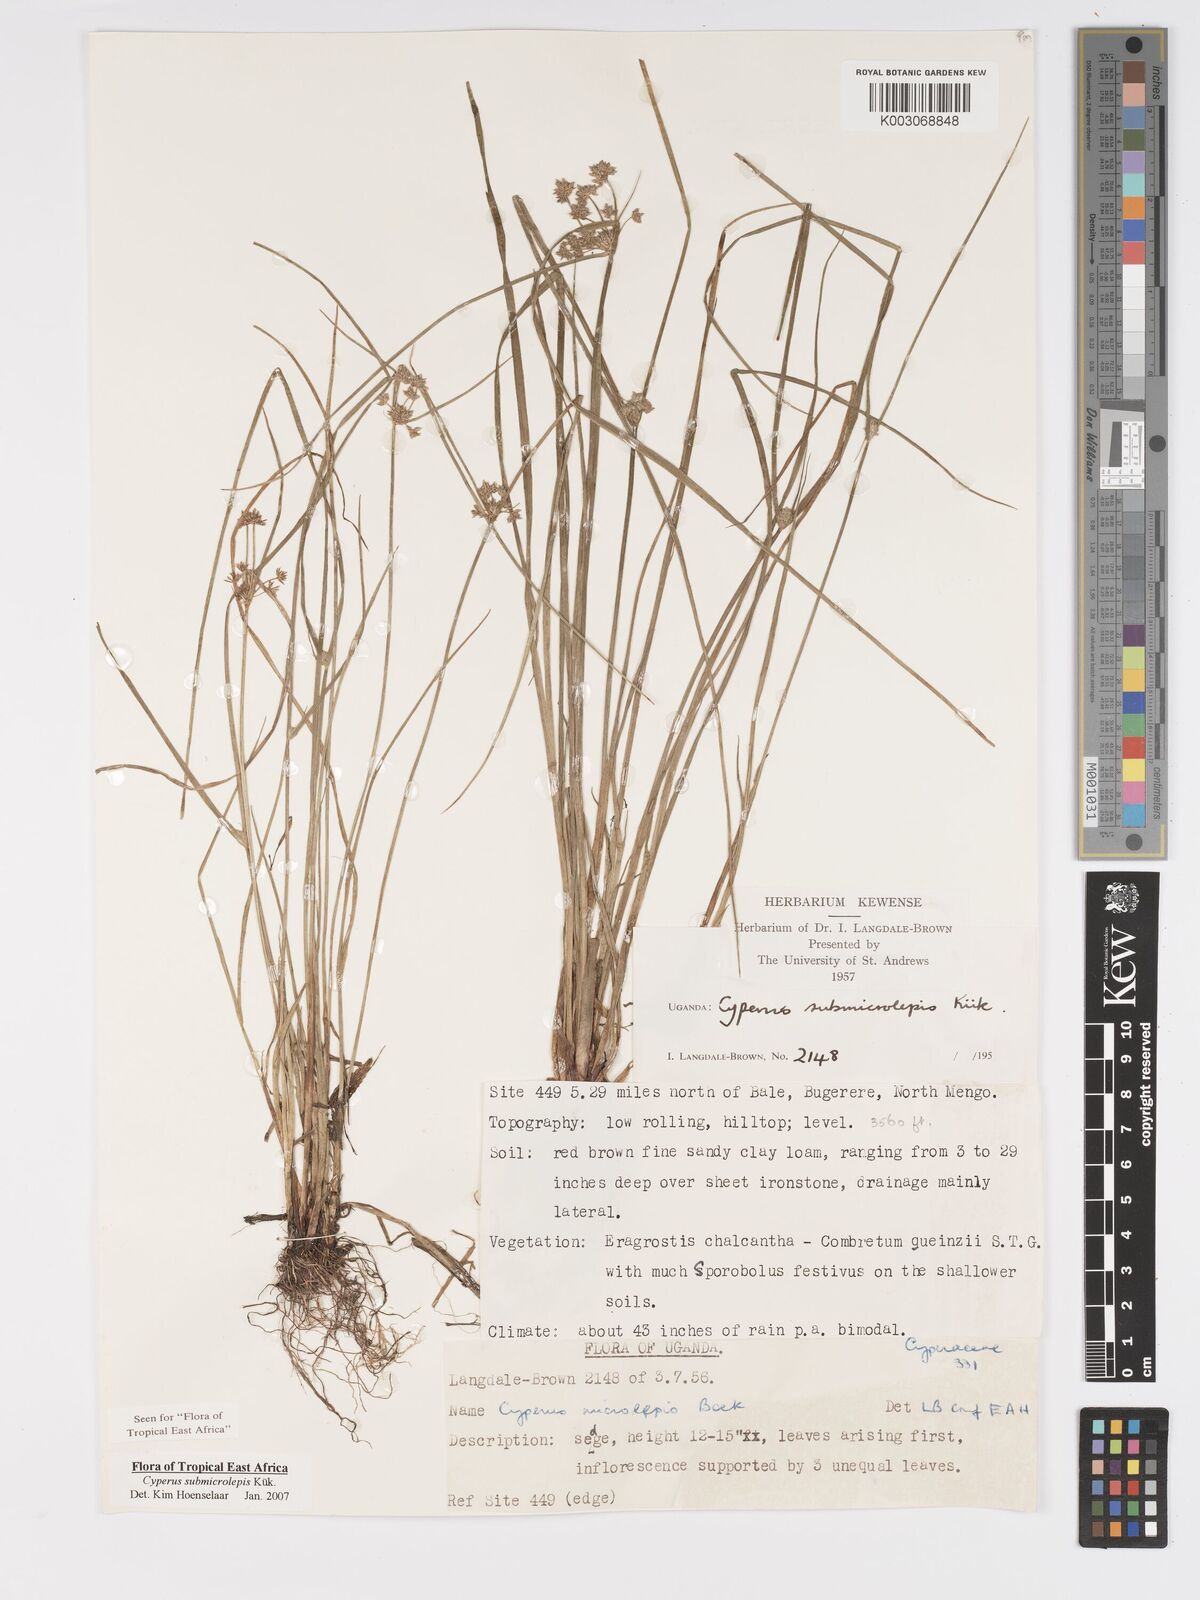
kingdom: Plantae
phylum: Tracheophyta
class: Liliopsida
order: Poales
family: Cyperaceae
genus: Cyperus
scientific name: Cyperus neoguinensis
